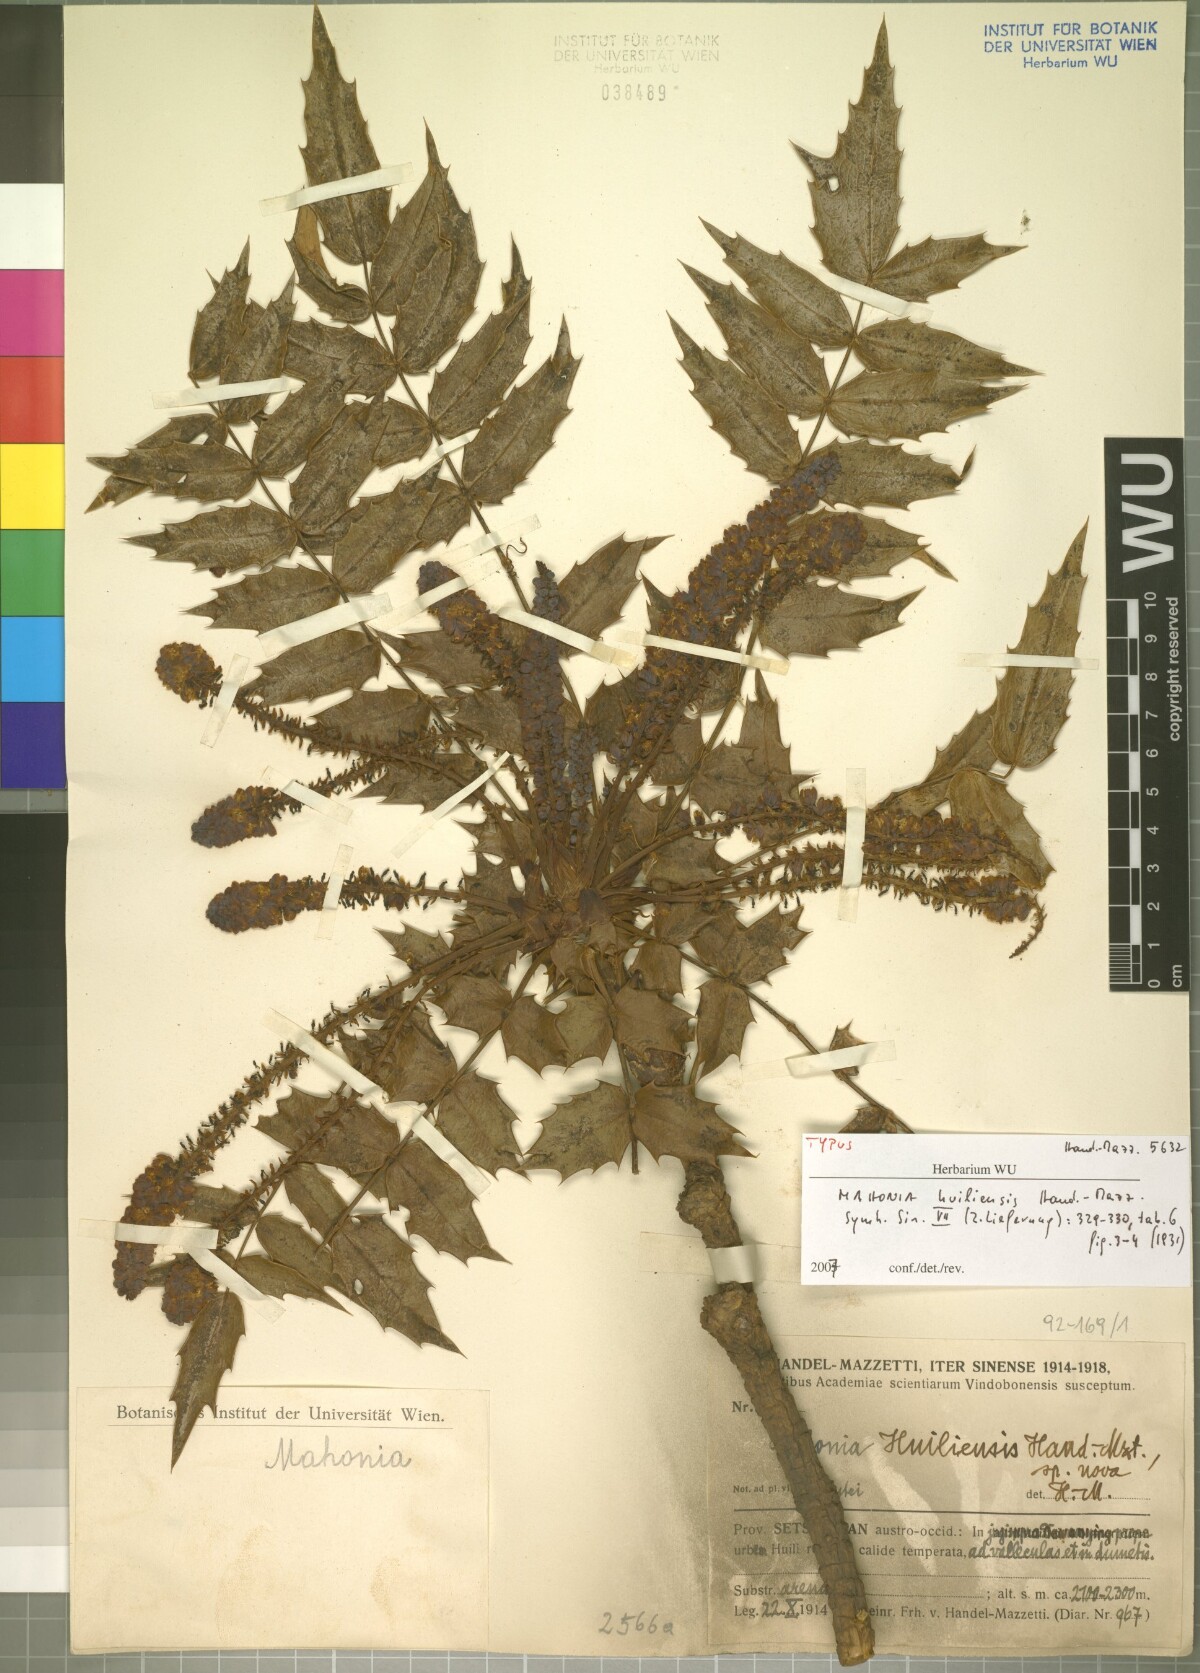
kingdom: Plantae
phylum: Tracheophyta
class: Magnoliopsida
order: Ranunculales
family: Berberidaceae
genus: Mahonia
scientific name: Mahonia sheridaniana
